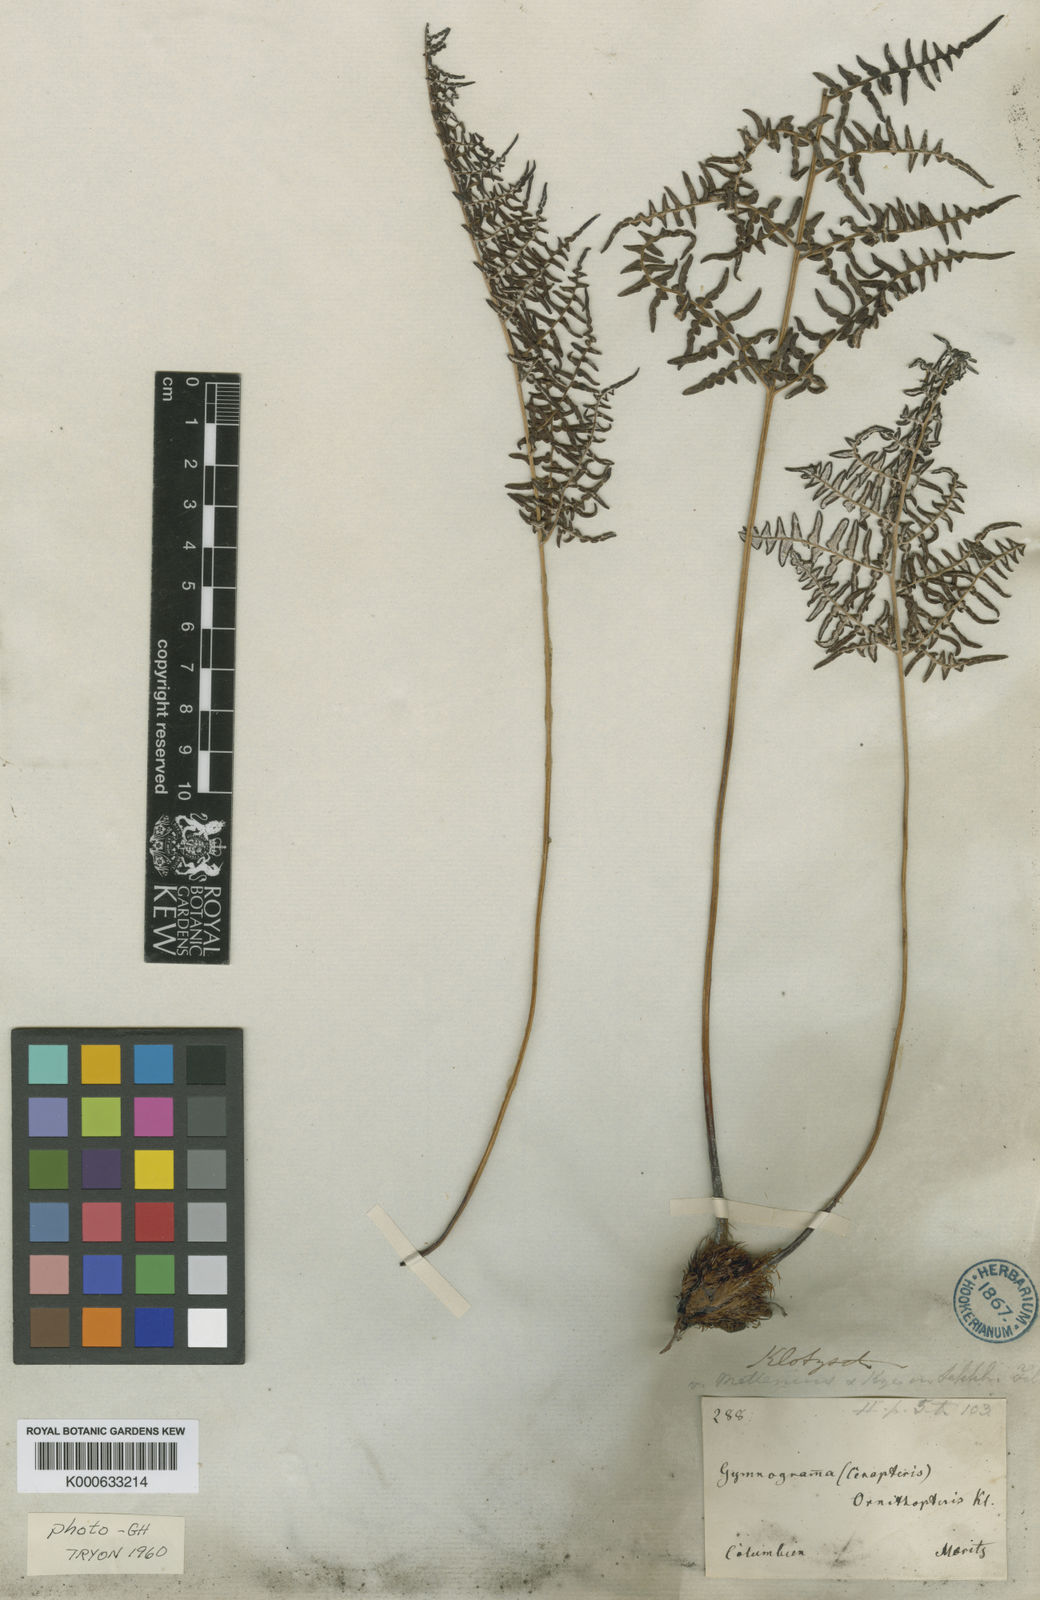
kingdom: Plantae
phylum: Tracheophyta
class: Polypodiopsida
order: Polypodiales
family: Pteridaceae
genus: Pityrogramma
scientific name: Pityrogramma chrysoconia
